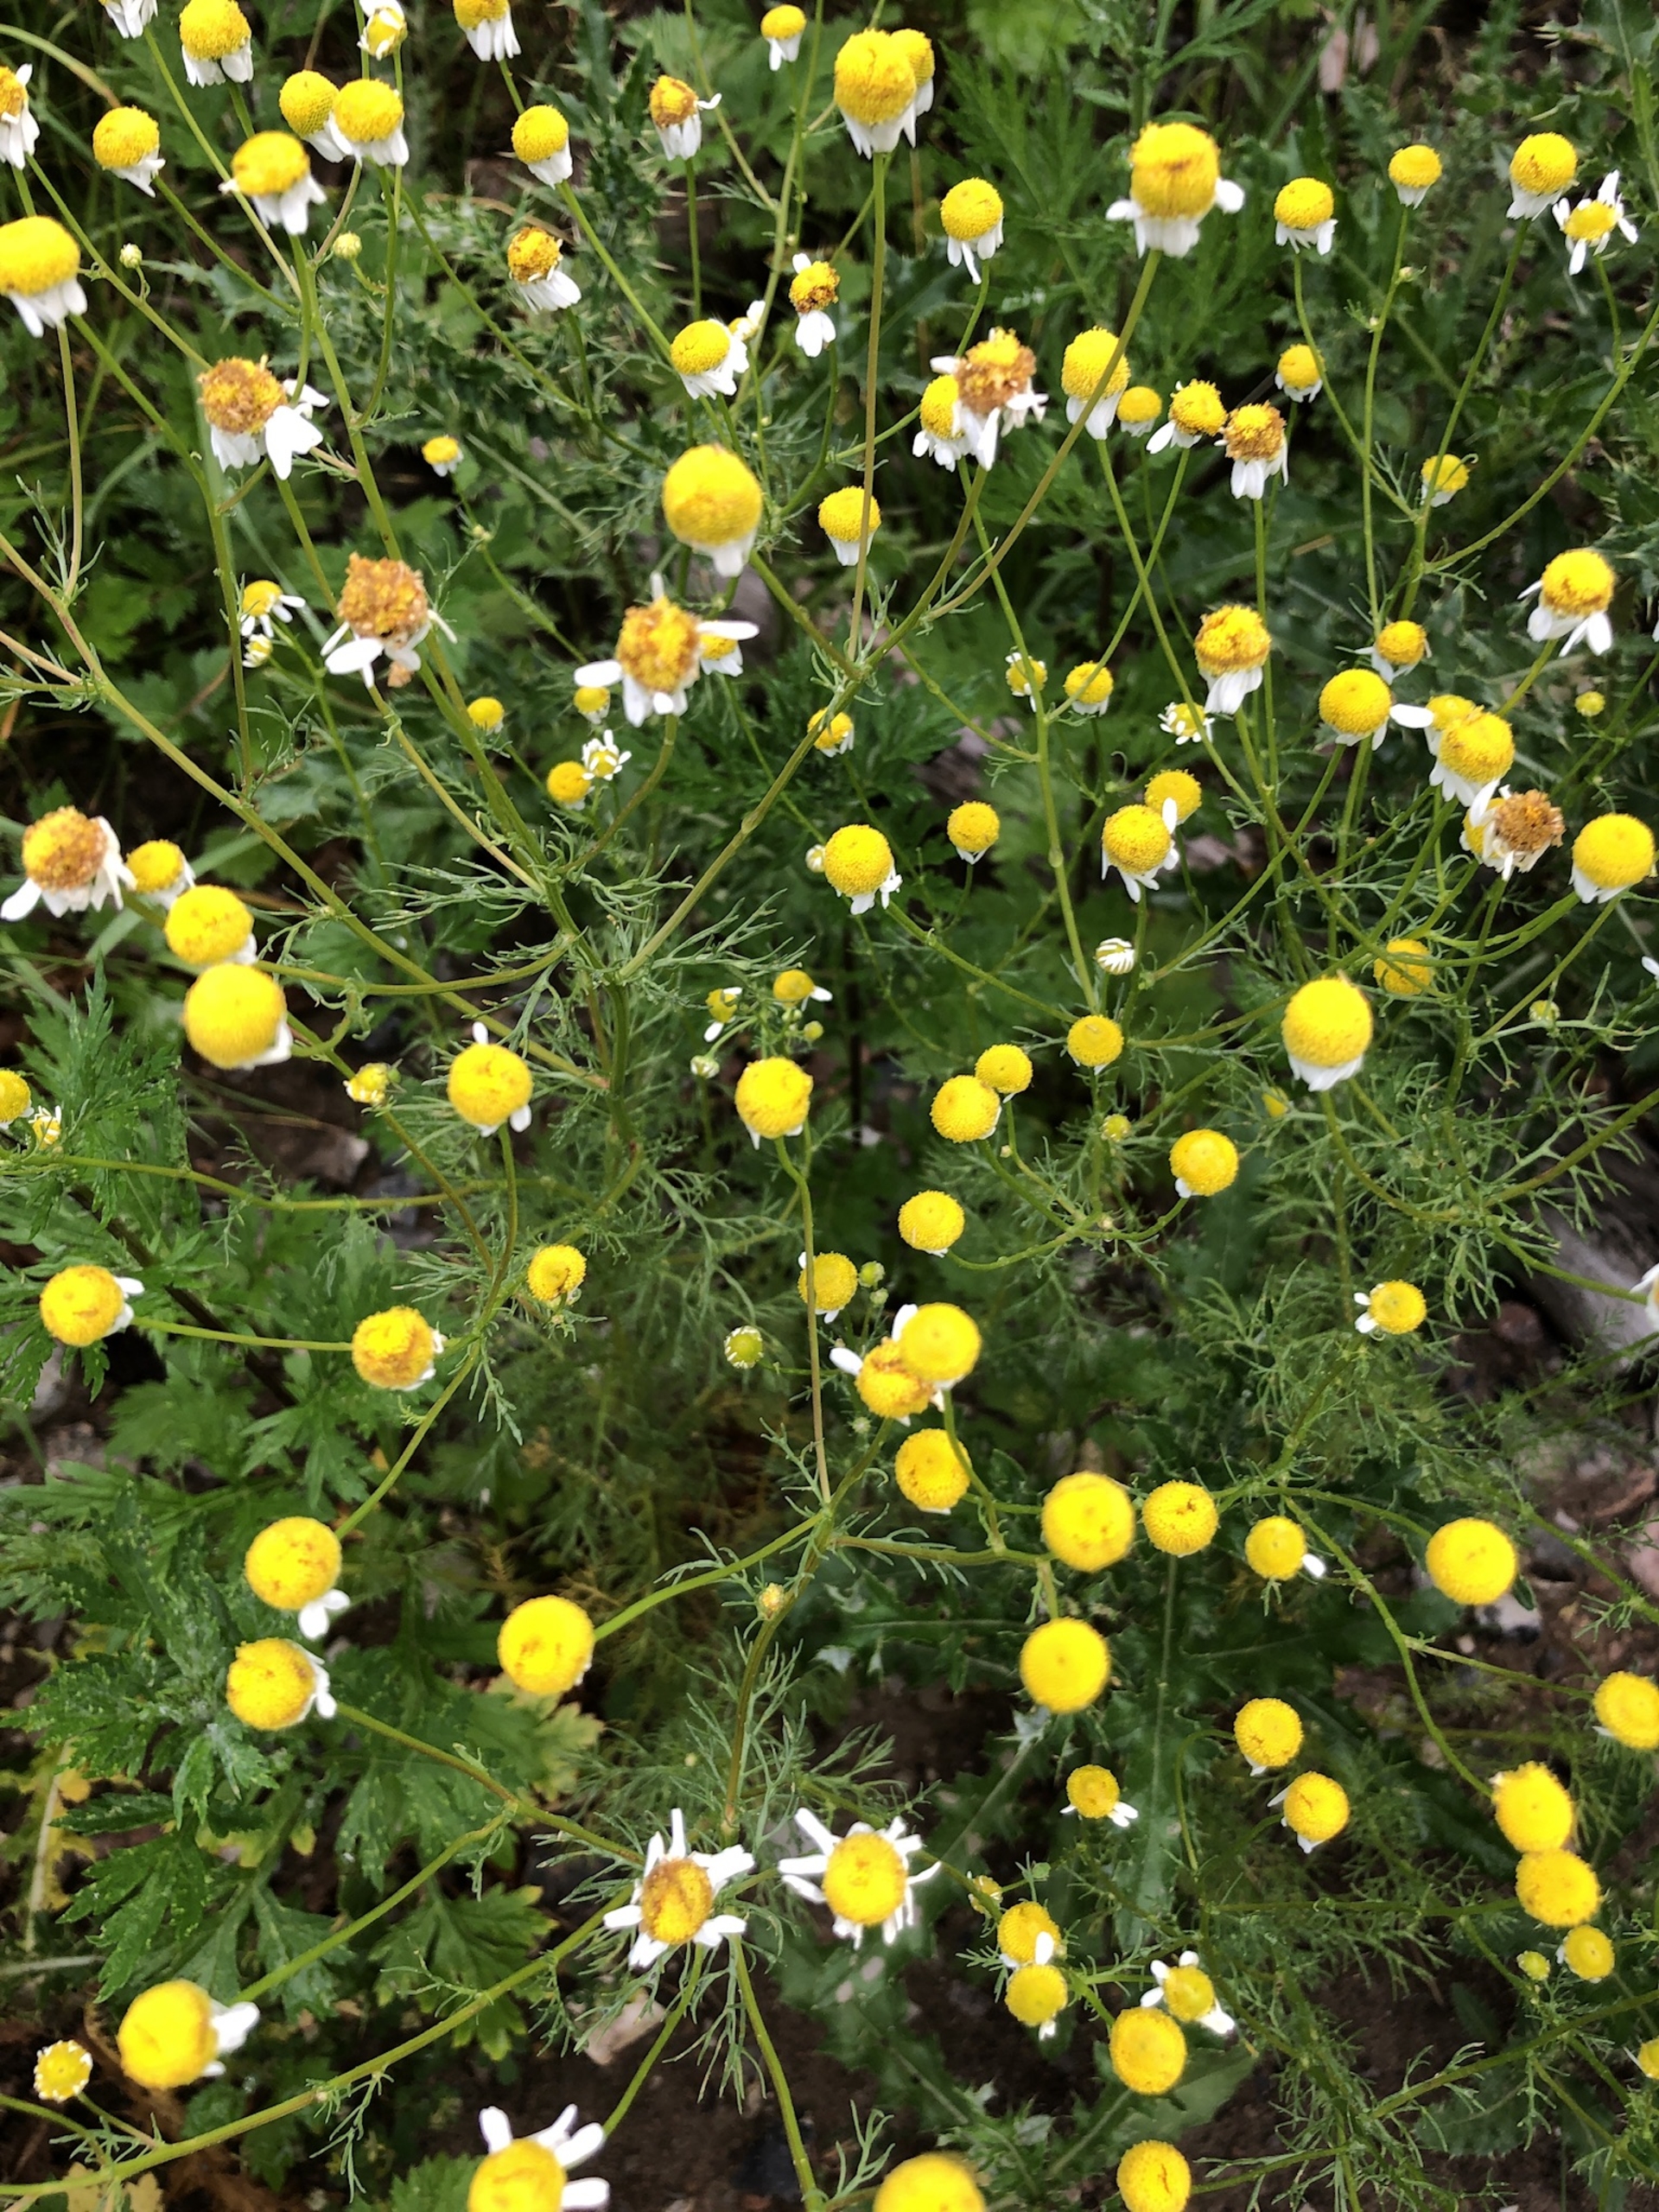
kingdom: Plantae
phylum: Tracheophyta
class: Magnoliopsida
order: Asterales
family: Asteraceae
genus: Matricaria
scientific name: Matricaria chamomilla
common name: Vellugtende kamille
